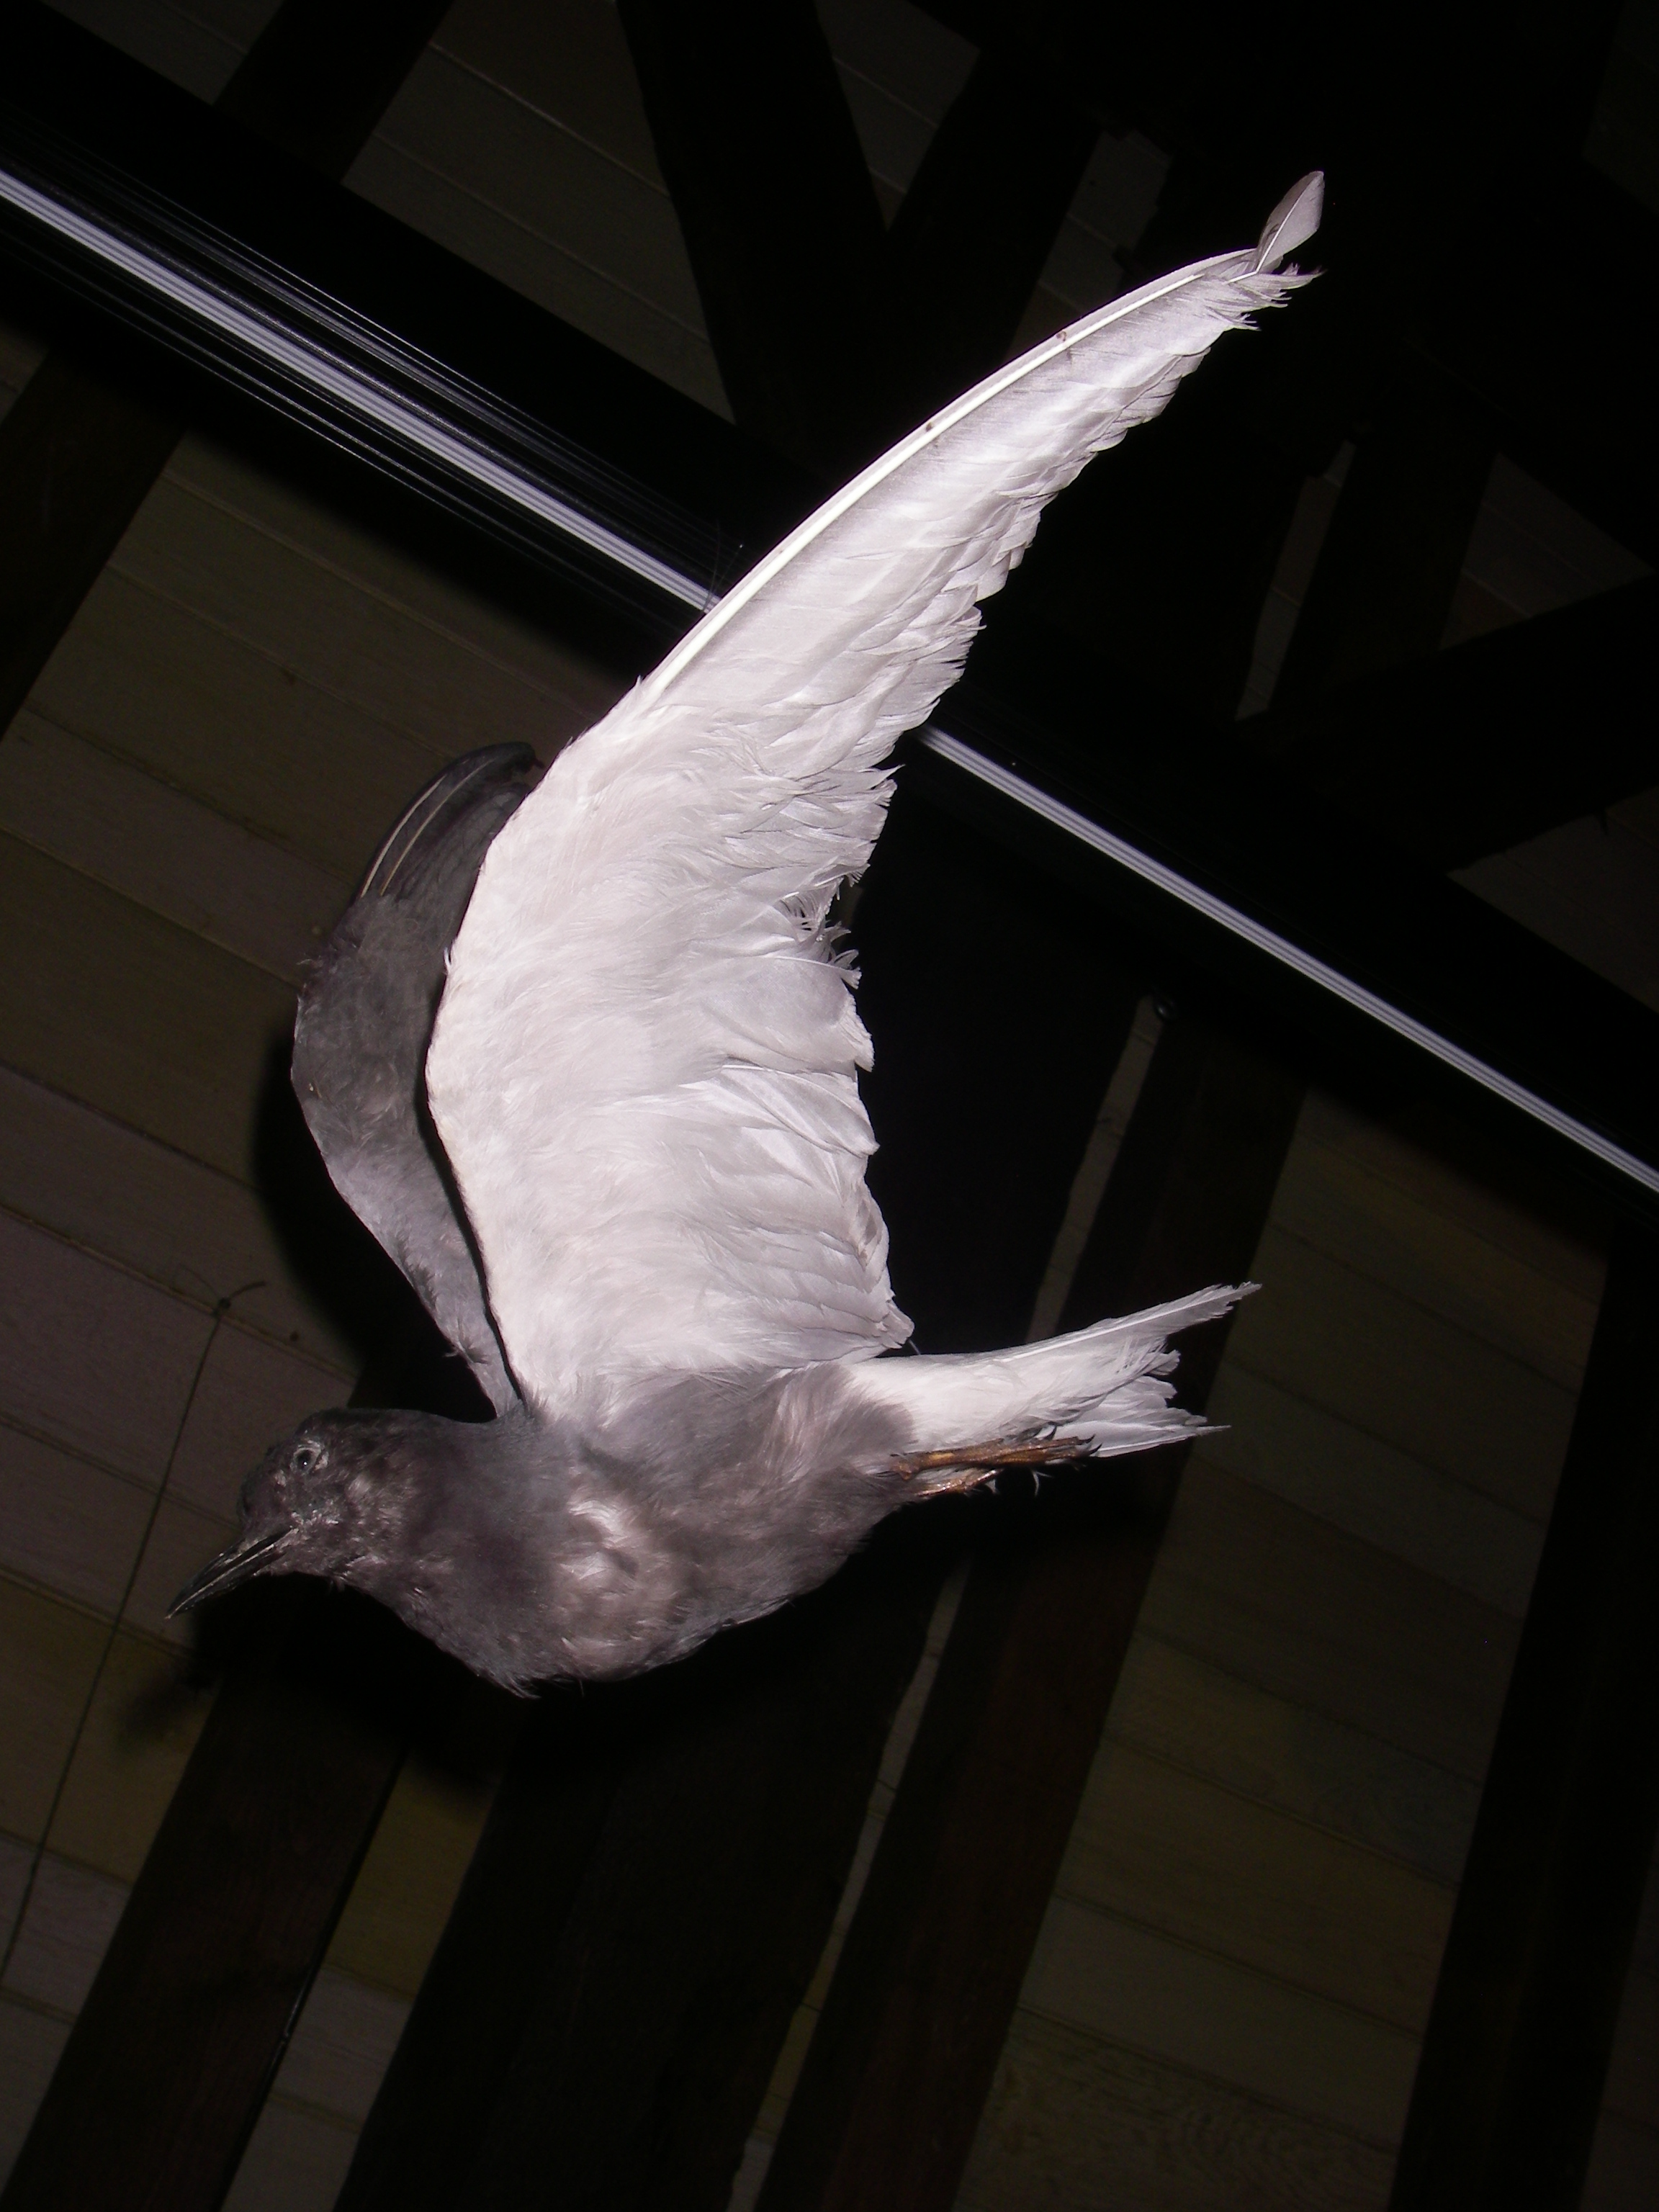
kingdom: Animalia
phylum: Chordata
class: Aves
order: Charadriiformes
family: Laridae
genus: Chlidonias
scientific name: Chlidonias niger
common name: Black tern
